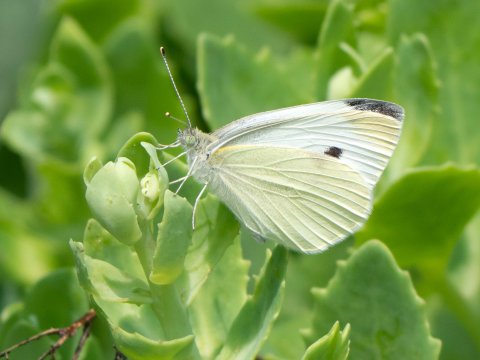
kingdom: Animalia
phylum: Arthropoda
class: Insecta
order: Lepidoptera
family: Pieridae
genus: Pieris
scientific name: Pieris rapae
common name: Cabbage White
